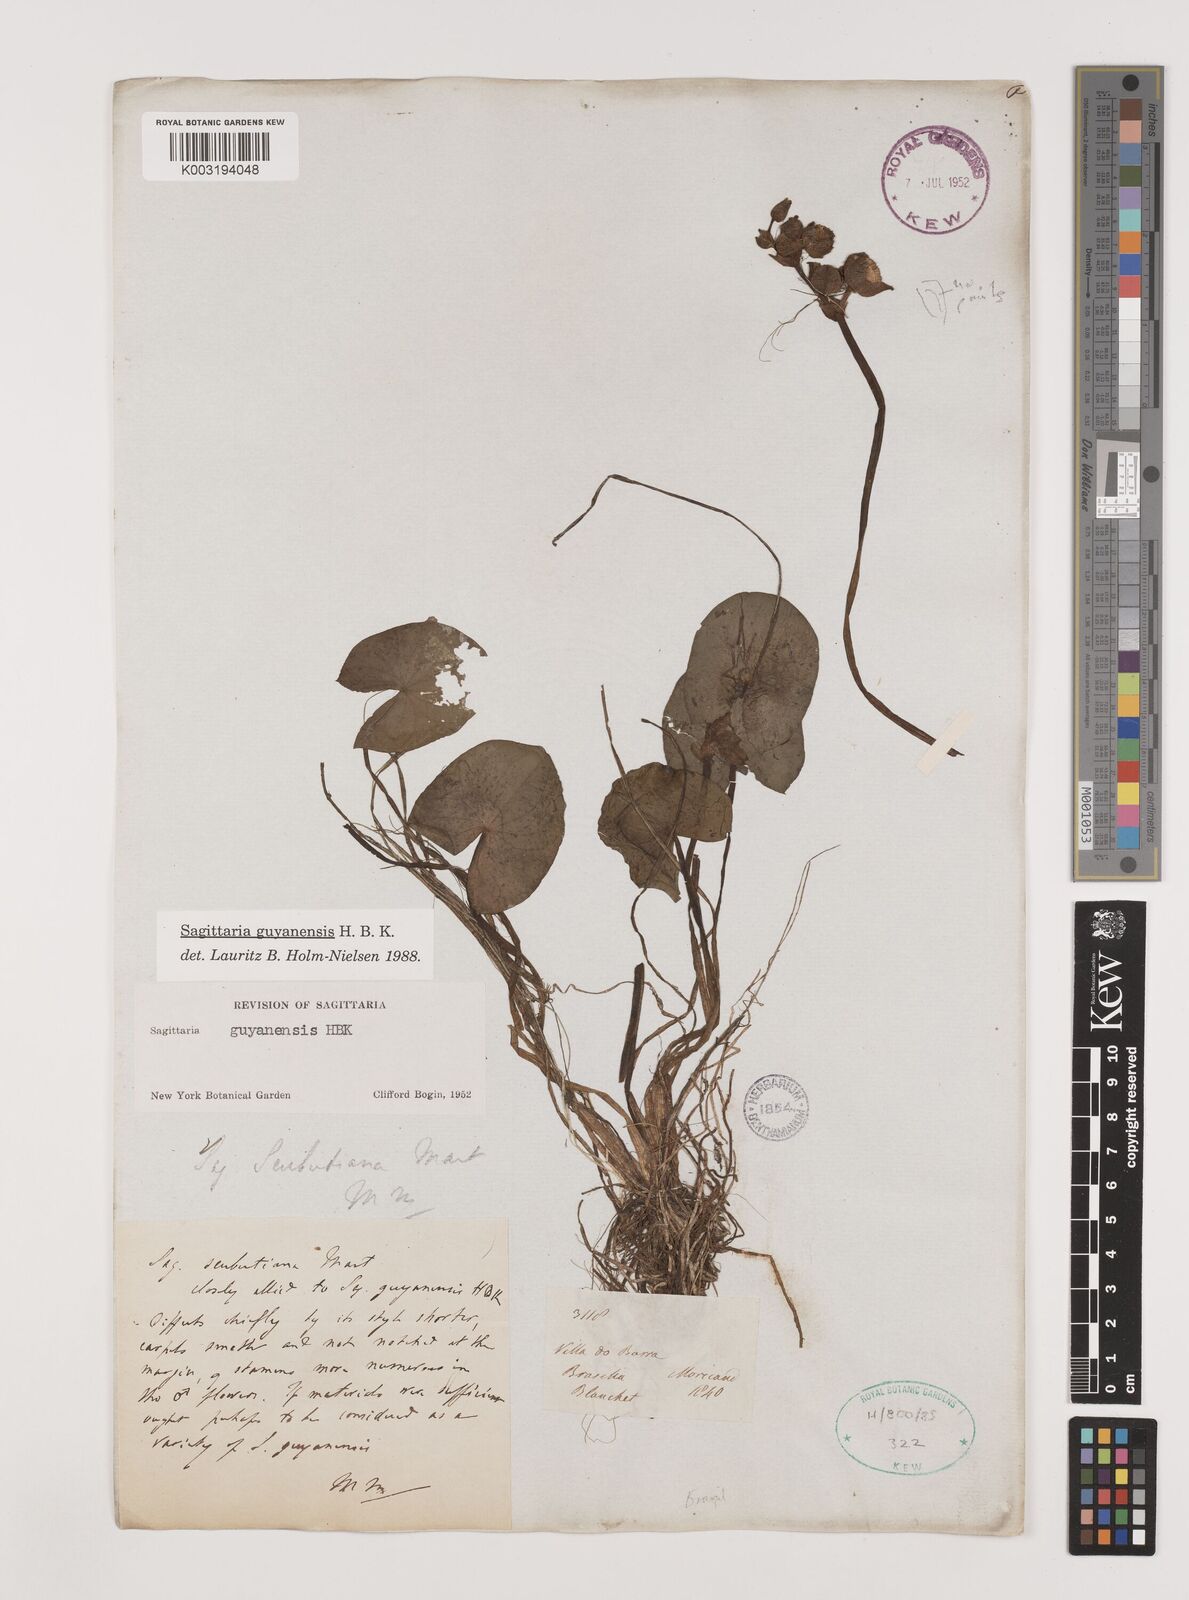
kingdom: Plantae
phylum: Tracheophyta
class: Liliopsida
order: Alismatales
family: Alismataceae
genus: Sagittaria
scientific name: Sagittaria guayanensis
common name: Guyanese arrowhead
